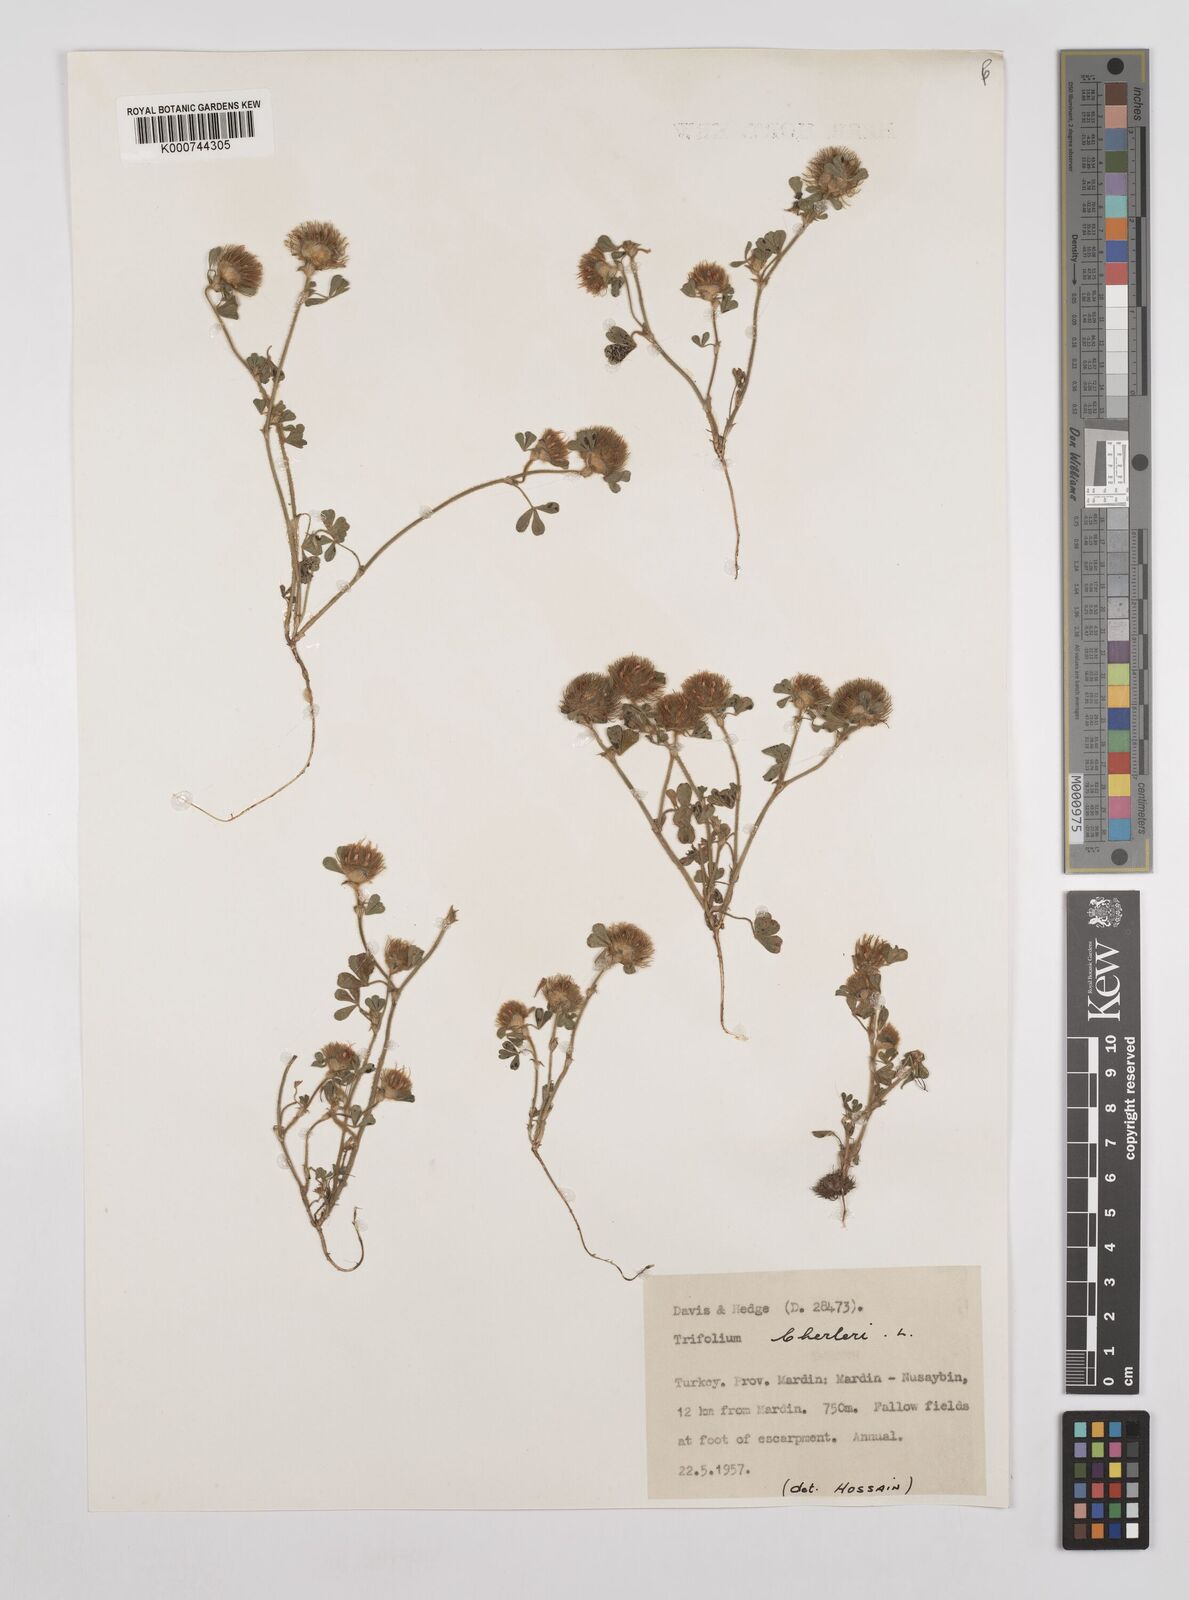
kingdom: Plantae
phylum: Tracheophyta
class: Magnoliopsida
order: Fabales
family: Fabaceae
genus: Trifolium
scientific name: Trifolium cherleri
